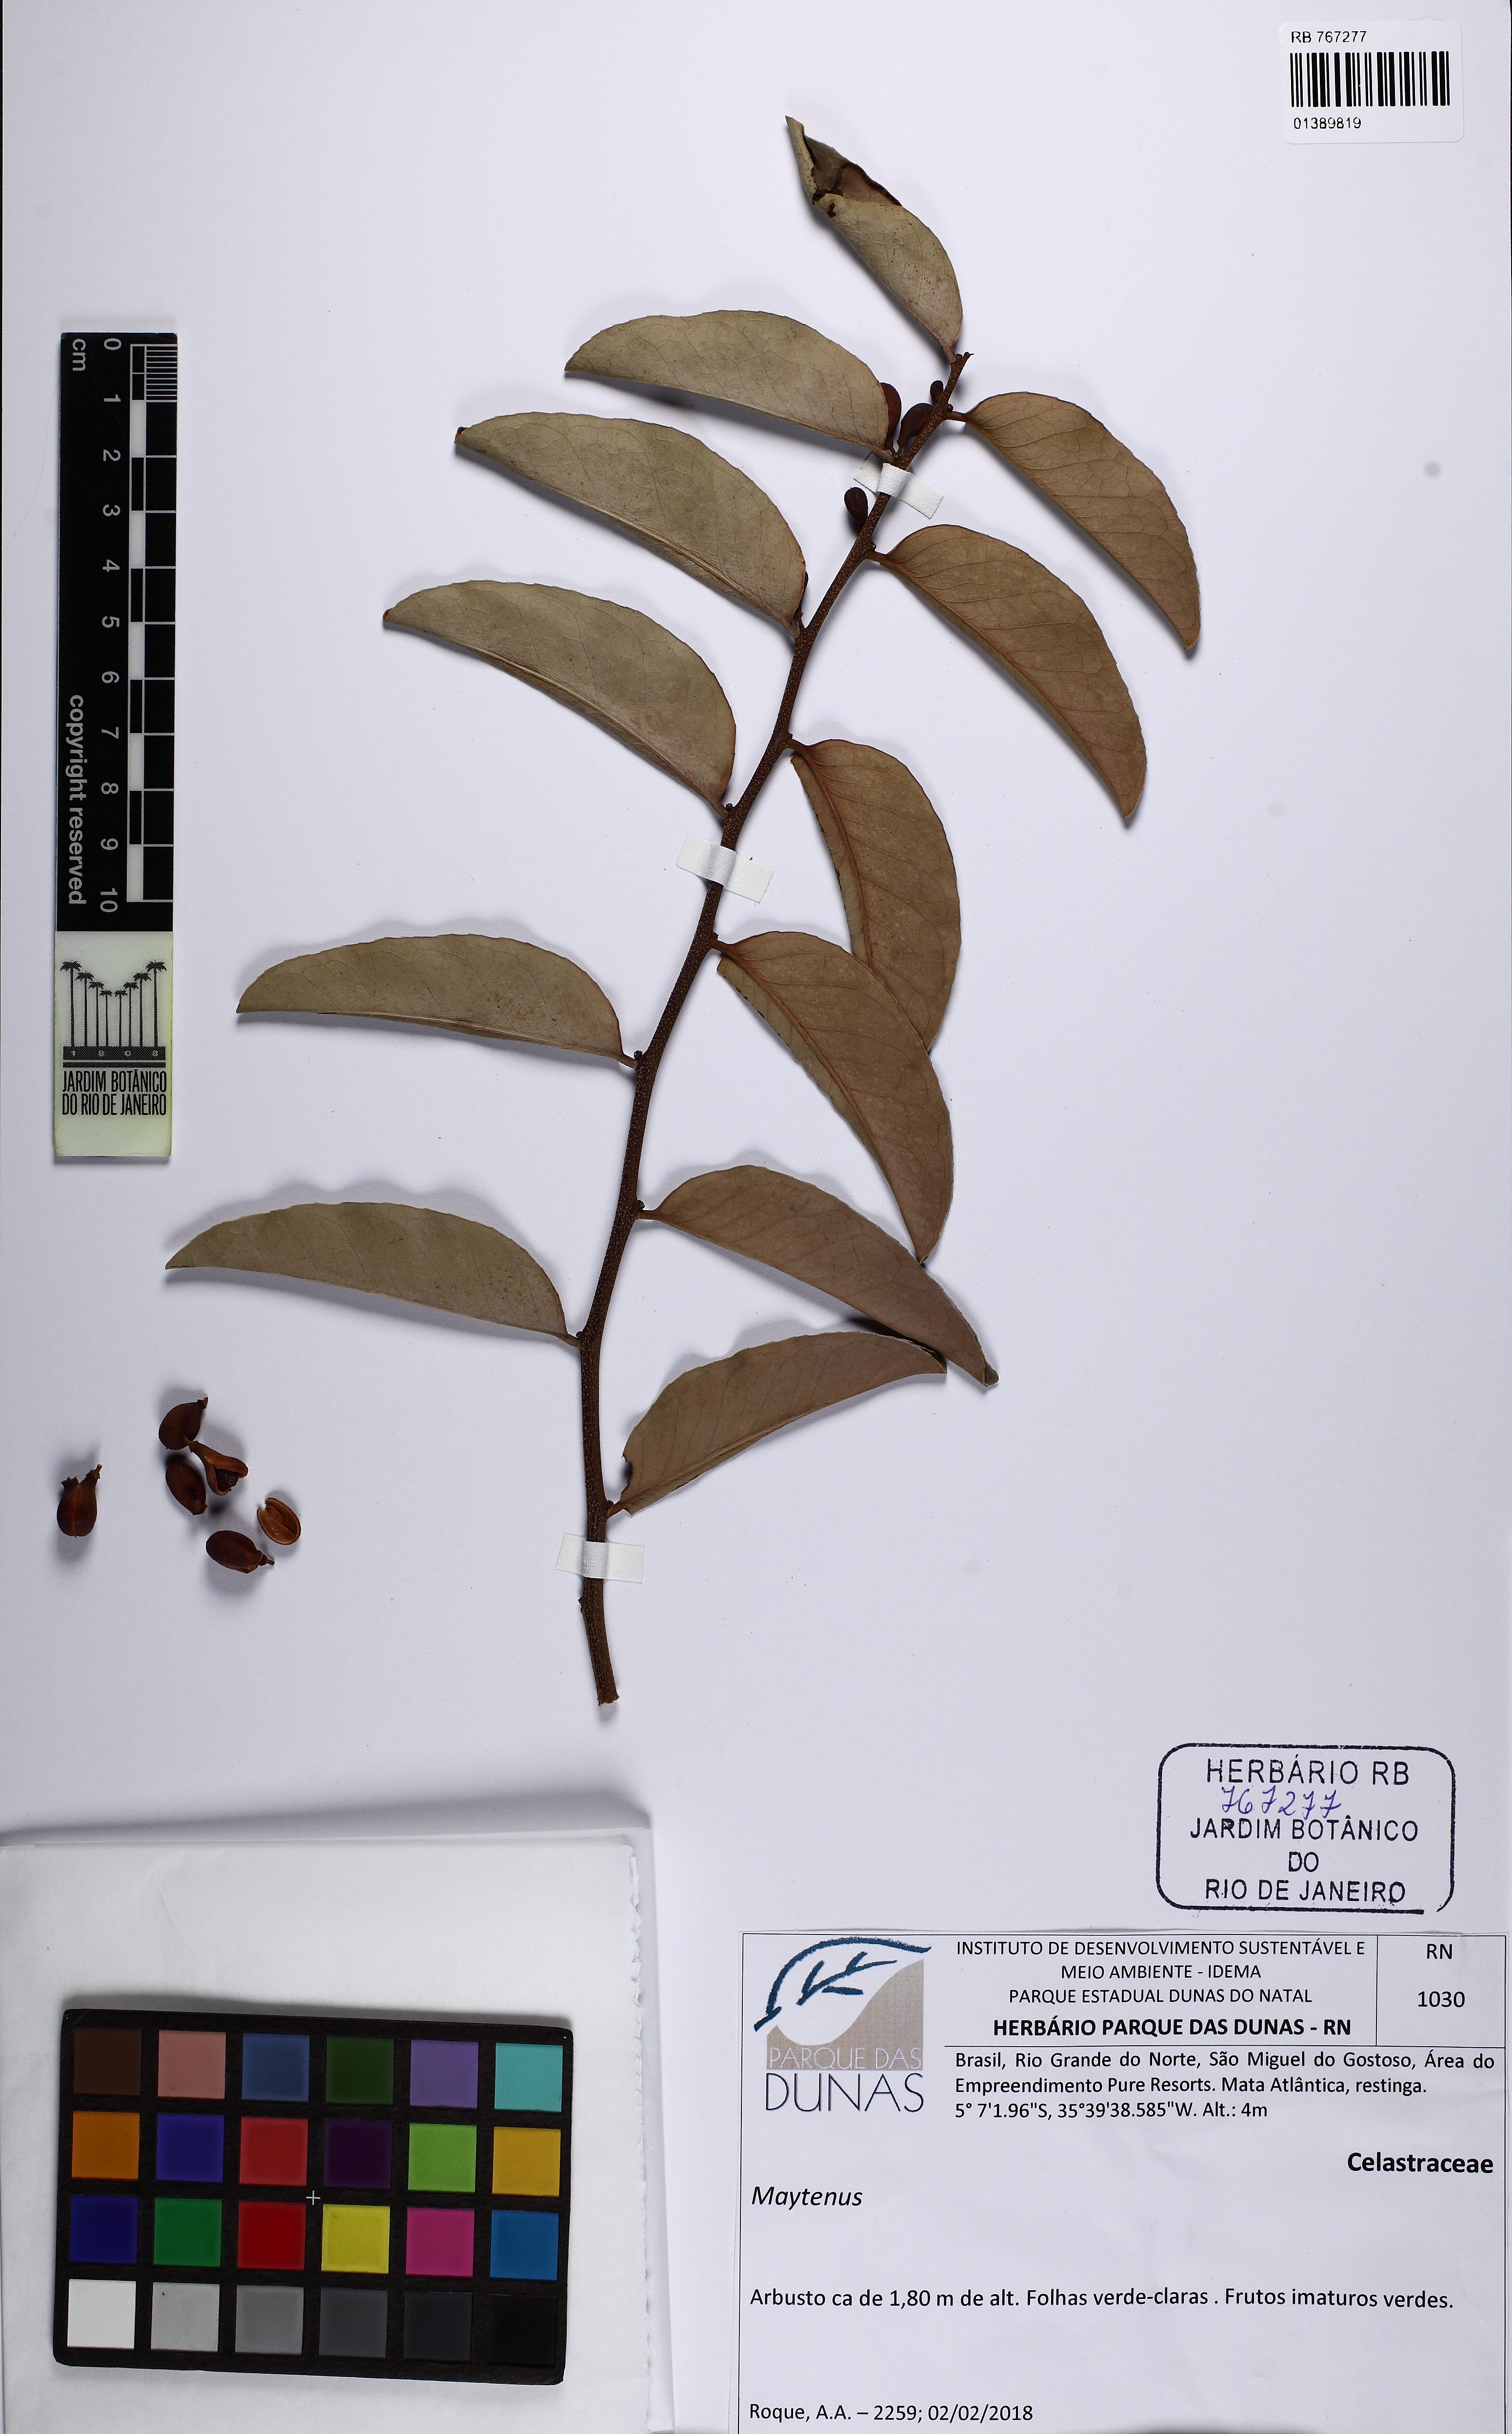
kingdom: Plantae
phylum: Tracheophyta
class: Magnoliopsida
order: Celastrales
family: Celastraceae
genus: Maytenus
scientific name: Maytenus
